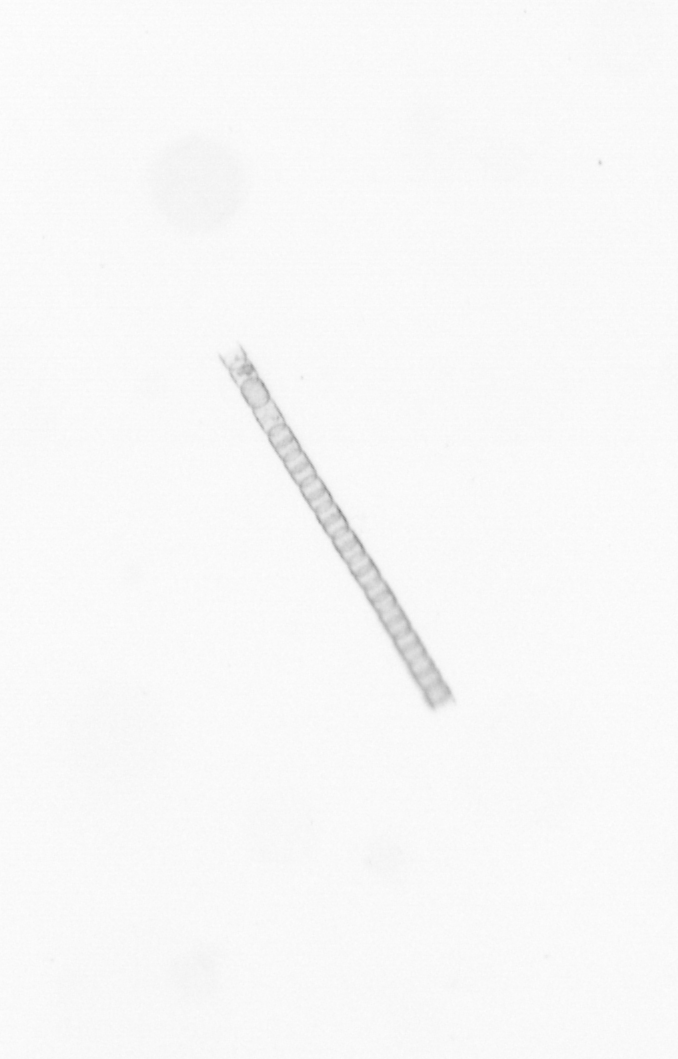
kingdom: Chromista
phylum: Ochrophyta
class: Bacillariophyceae
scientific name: Bacillariophyceae
